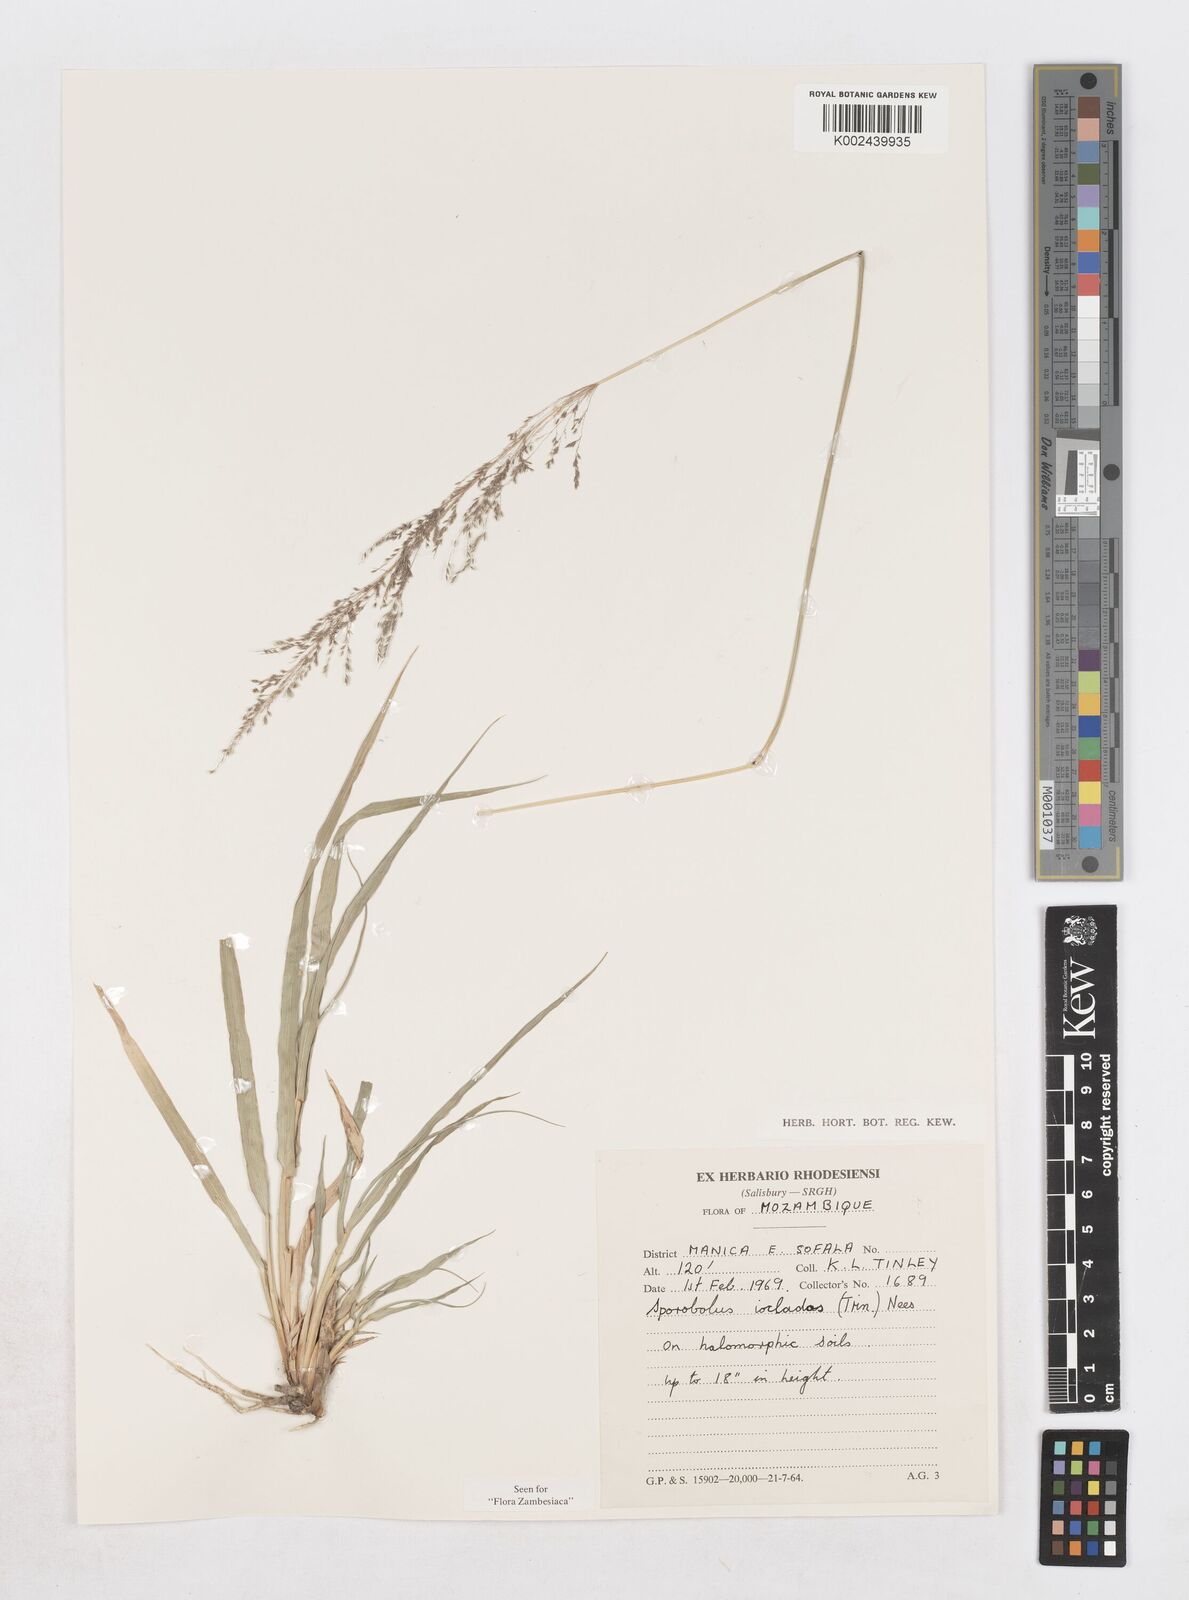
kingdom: Plantae
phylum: Tracheophyta
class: Liliopsida
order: Poales
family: Poaceae
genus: Sporobolus
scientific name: Sporobolus ioclados
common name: Pan dropseed
